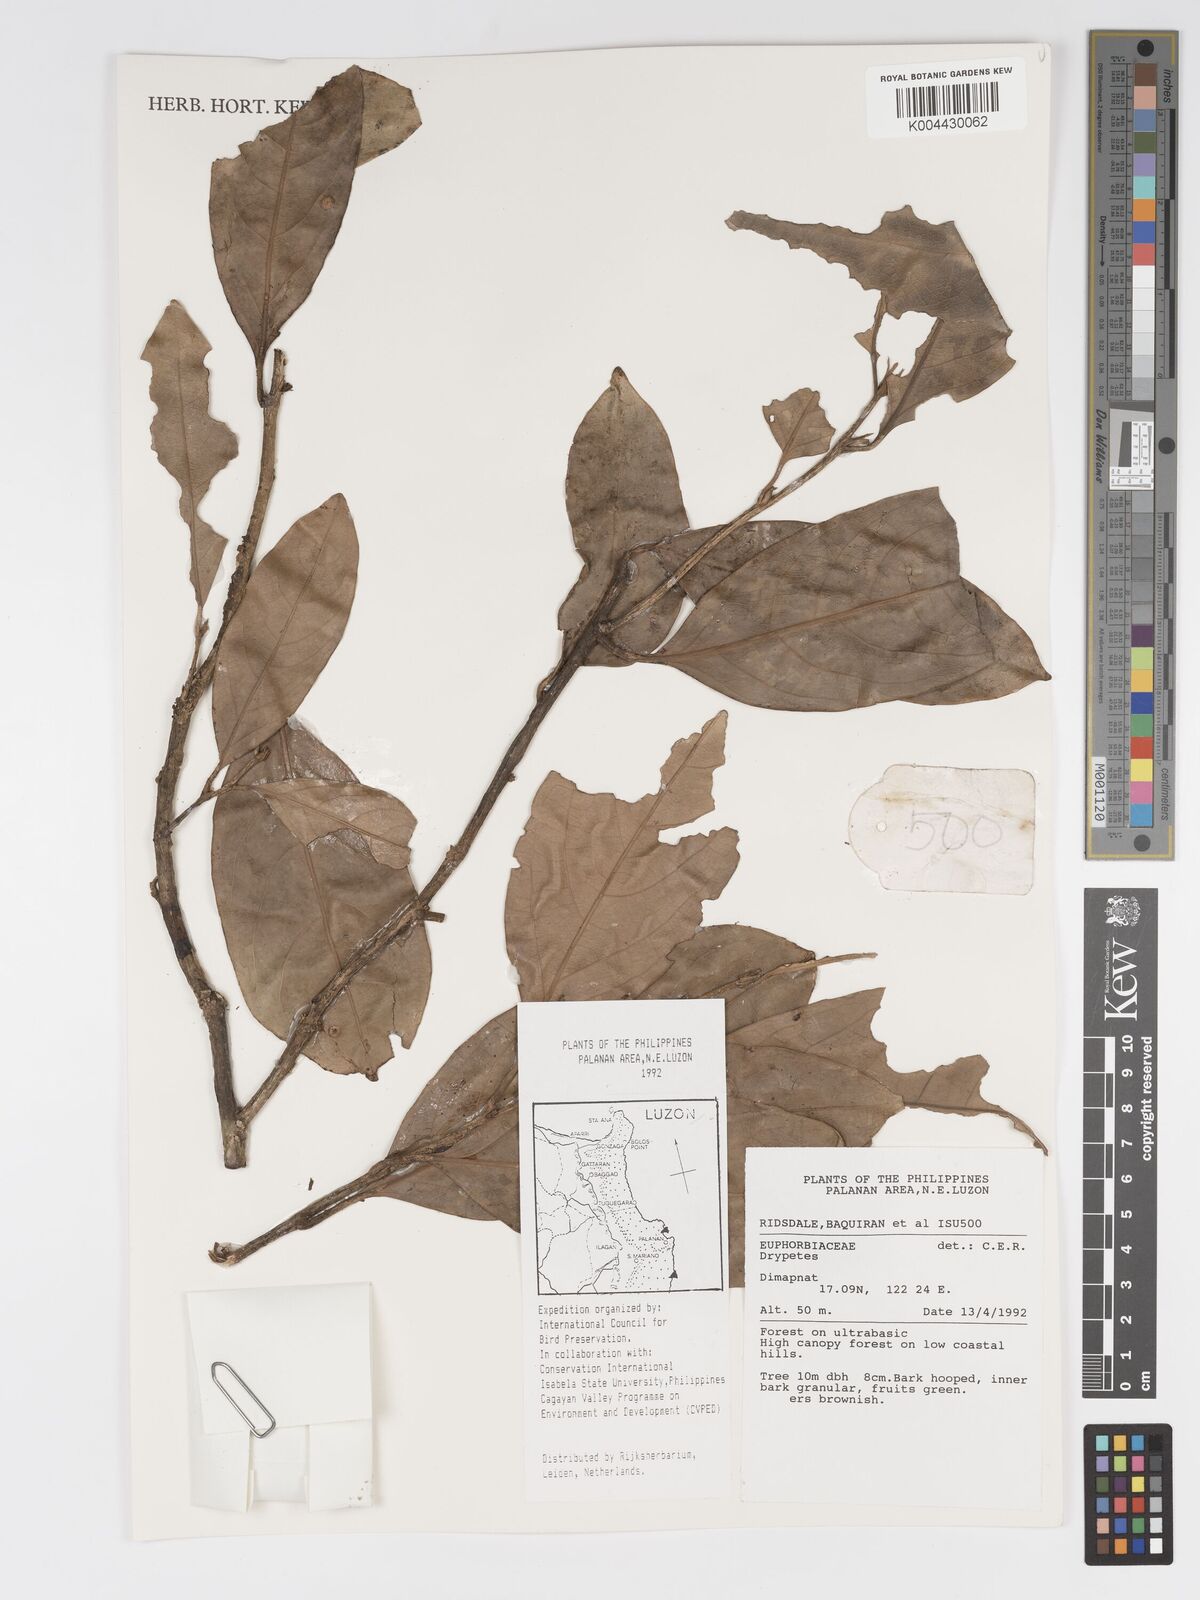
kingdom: Plantae
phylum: Tracheophyta
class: Magnoliopsida
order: Malpighiales
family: Putranjivaceae
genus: Drypetes
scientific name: Drypetes
